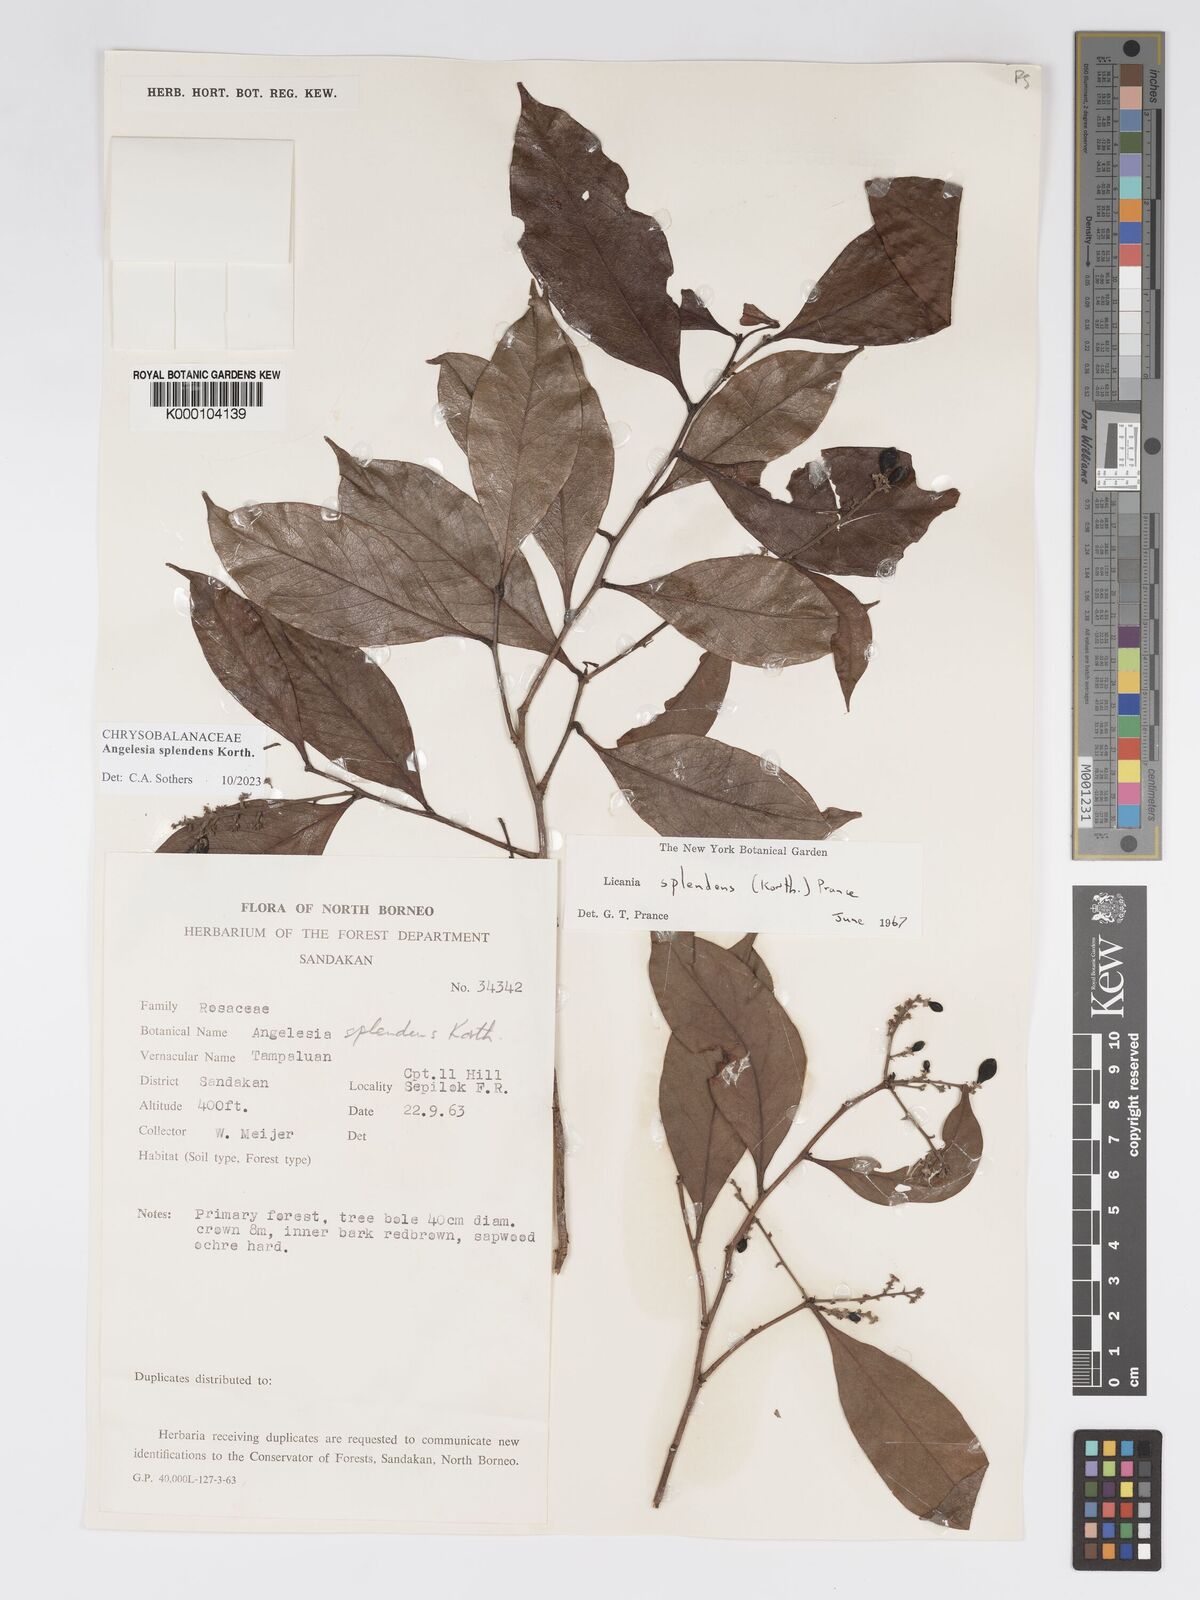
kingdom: Plantae
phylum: Tracheophyta
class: Magnoliopsida
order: Malpighiales
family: Chrysobalanaceae
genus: Angelesia
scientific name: Angelesia splendens
